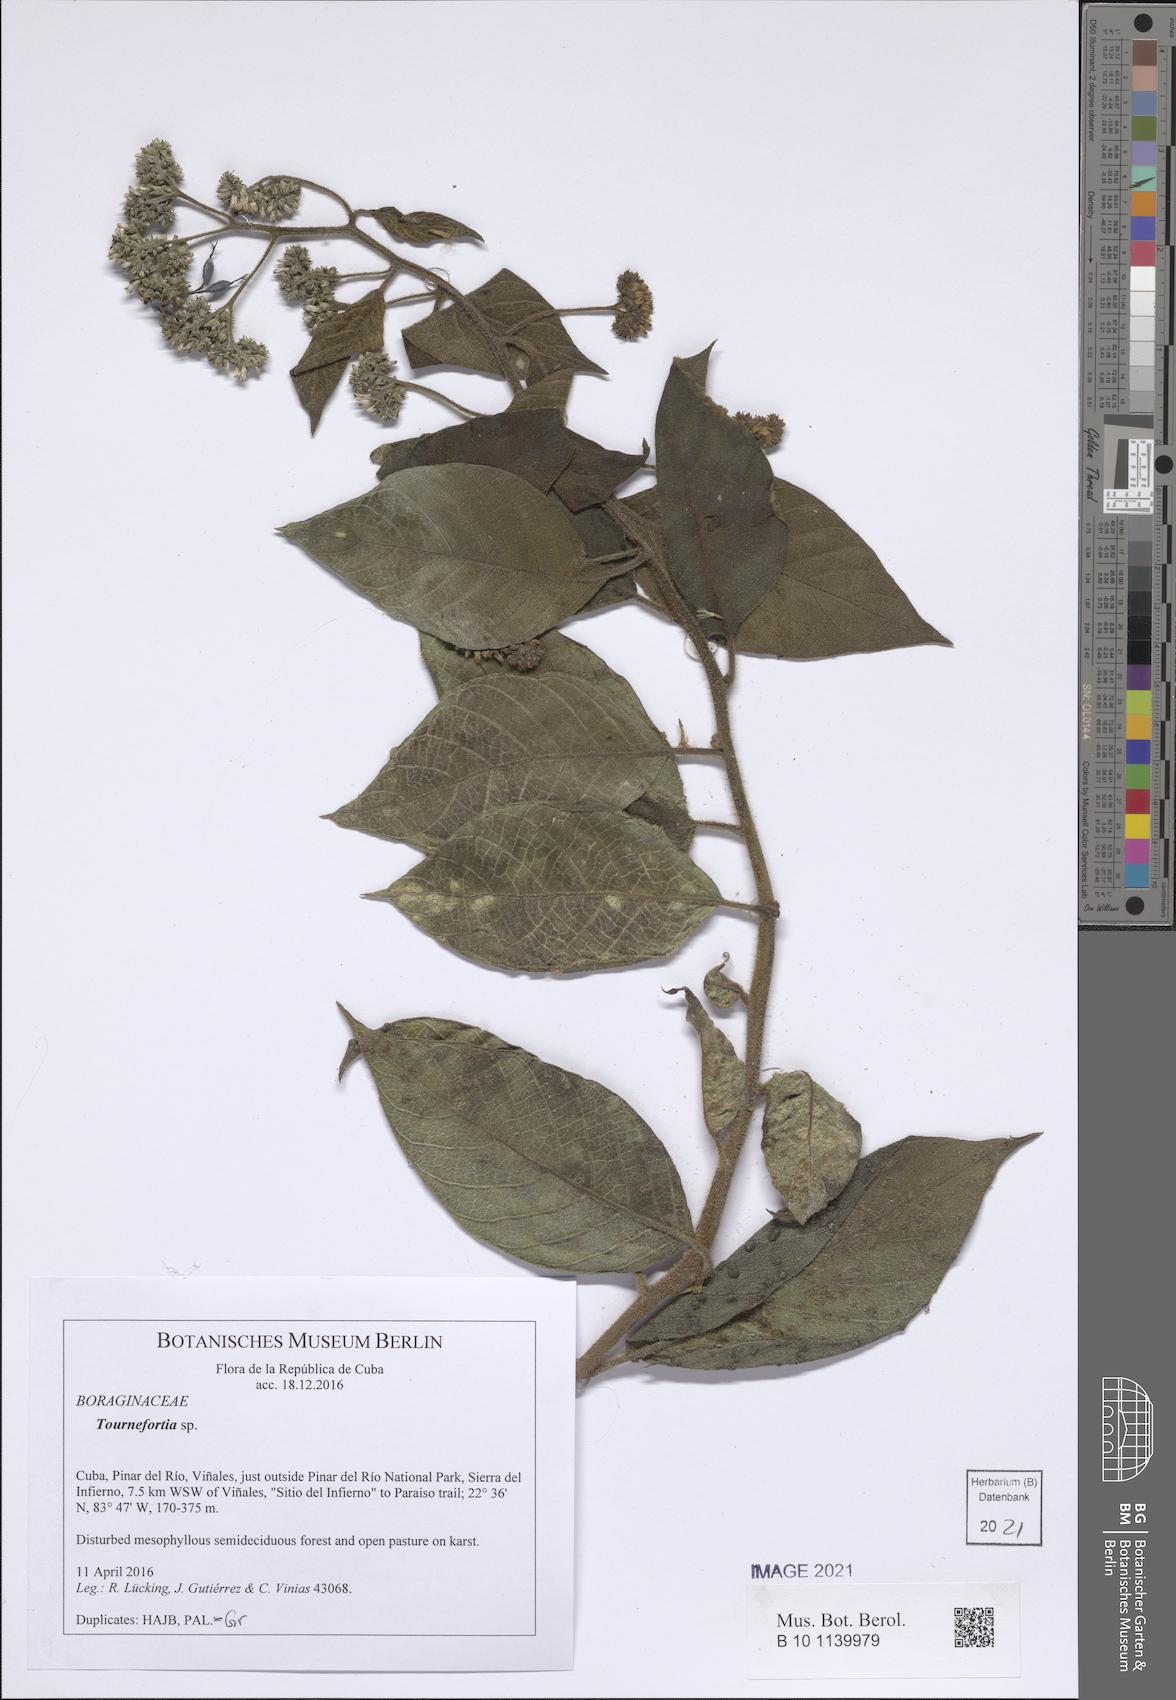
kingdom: Plantae
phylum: Tracheophyta
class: Magnoliopsida
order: Boraginales
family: Heliotropiaceae
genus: Heliotropium
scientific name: Heliotropium verdcourtii
